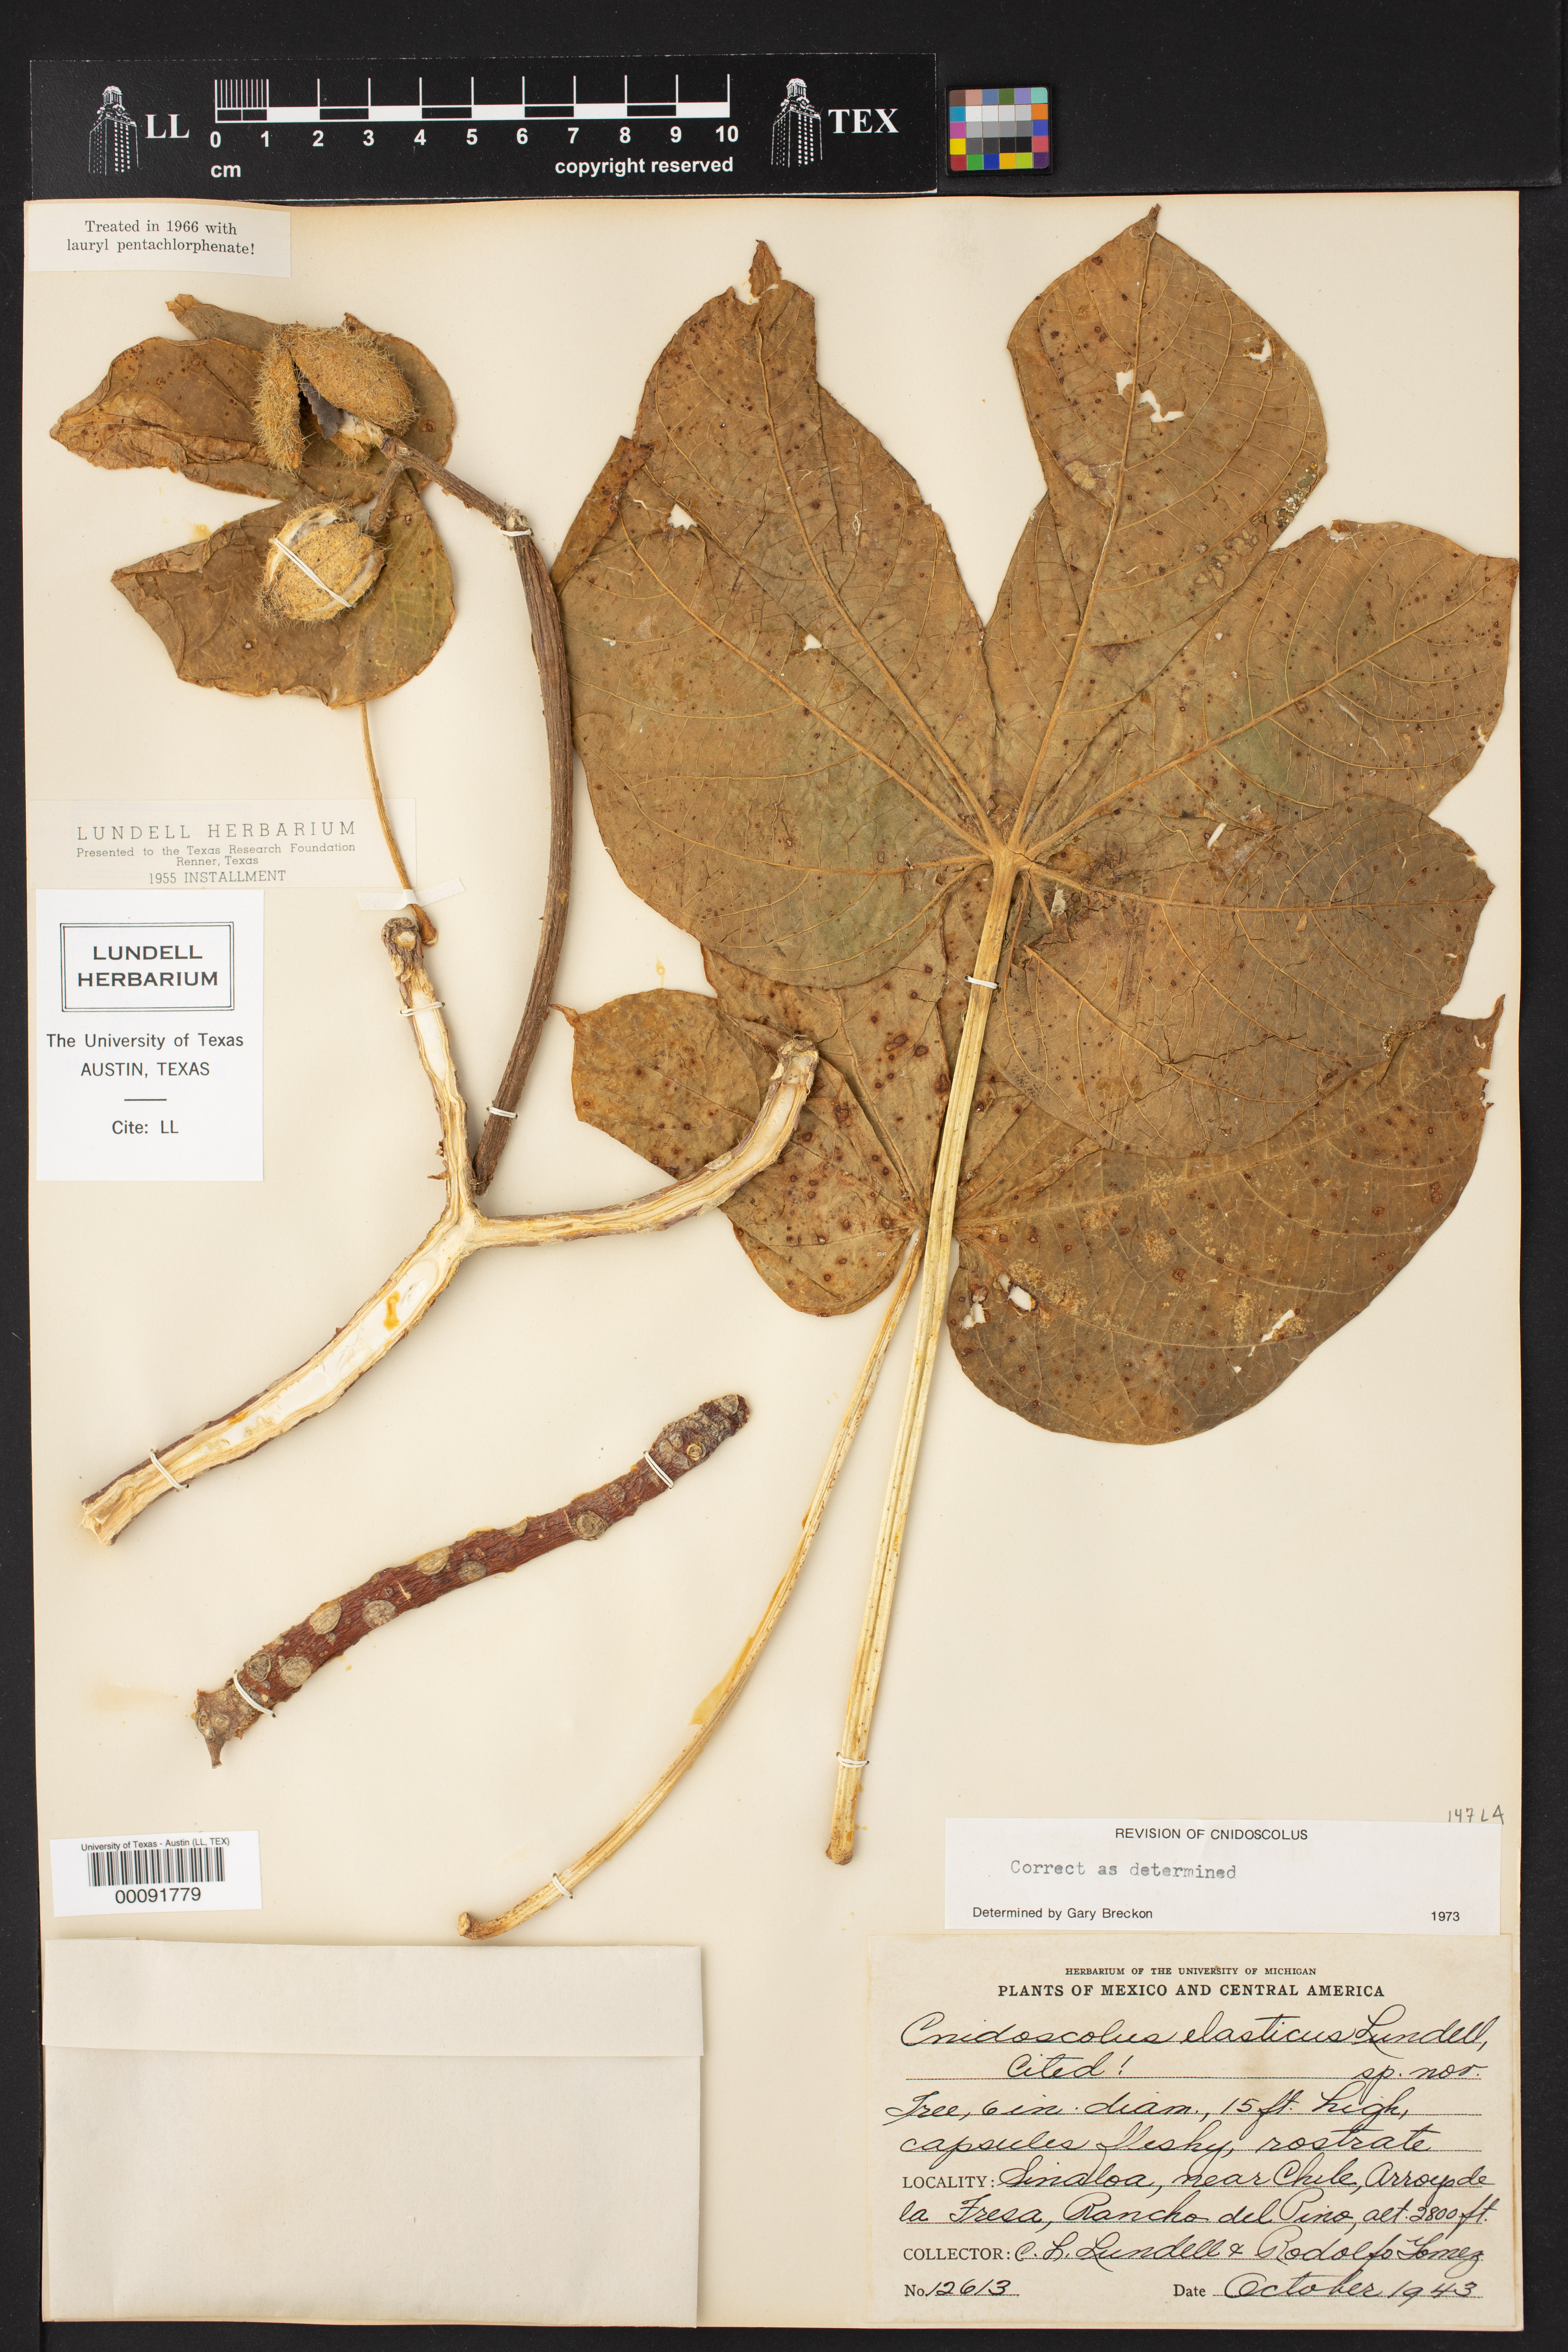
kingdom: Plantae
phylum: Tracheophyta
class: Magnoliopsida
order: Malpighiales
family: Euphorbiaceae
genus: Cnidoscolus
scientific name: Cnidoscolus elasticus
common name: Chilte
